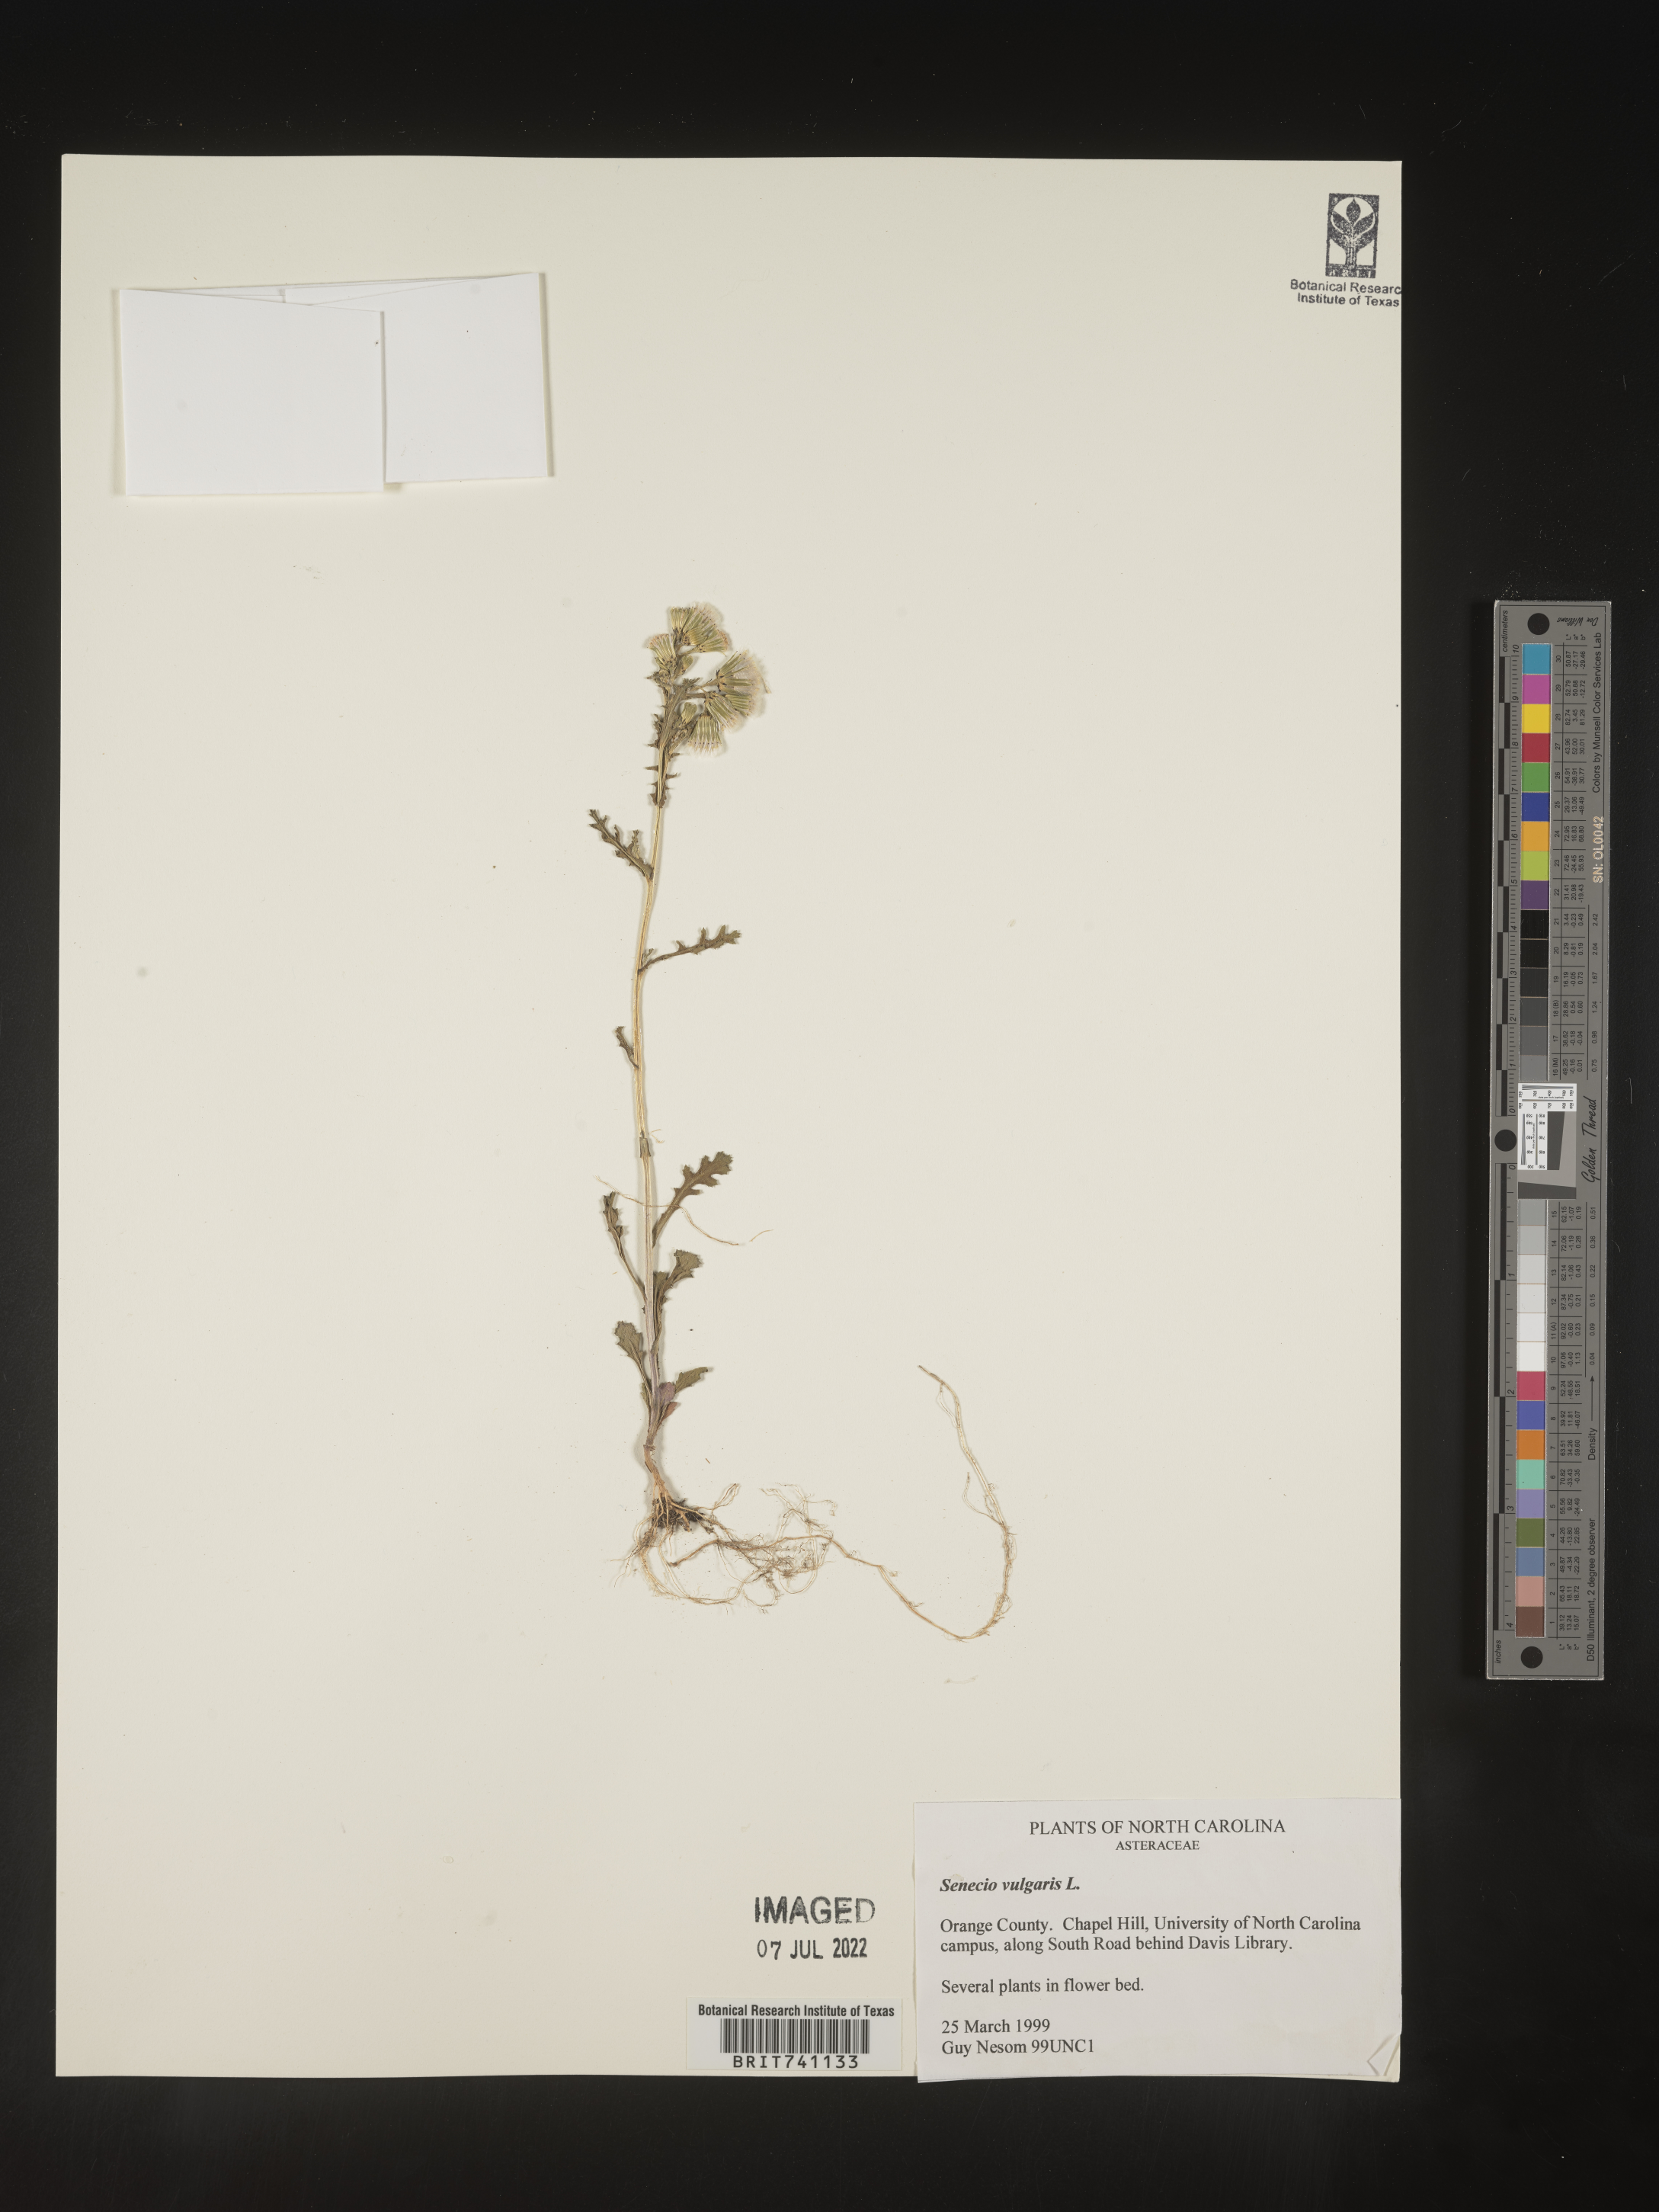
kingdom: Plantae
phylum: Tracheophyta
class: Magnoliopsida
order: Asterales
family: Asteraceae
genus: Senecio
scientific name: Senecio vulgaris
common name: Old-man-in-the-spring
